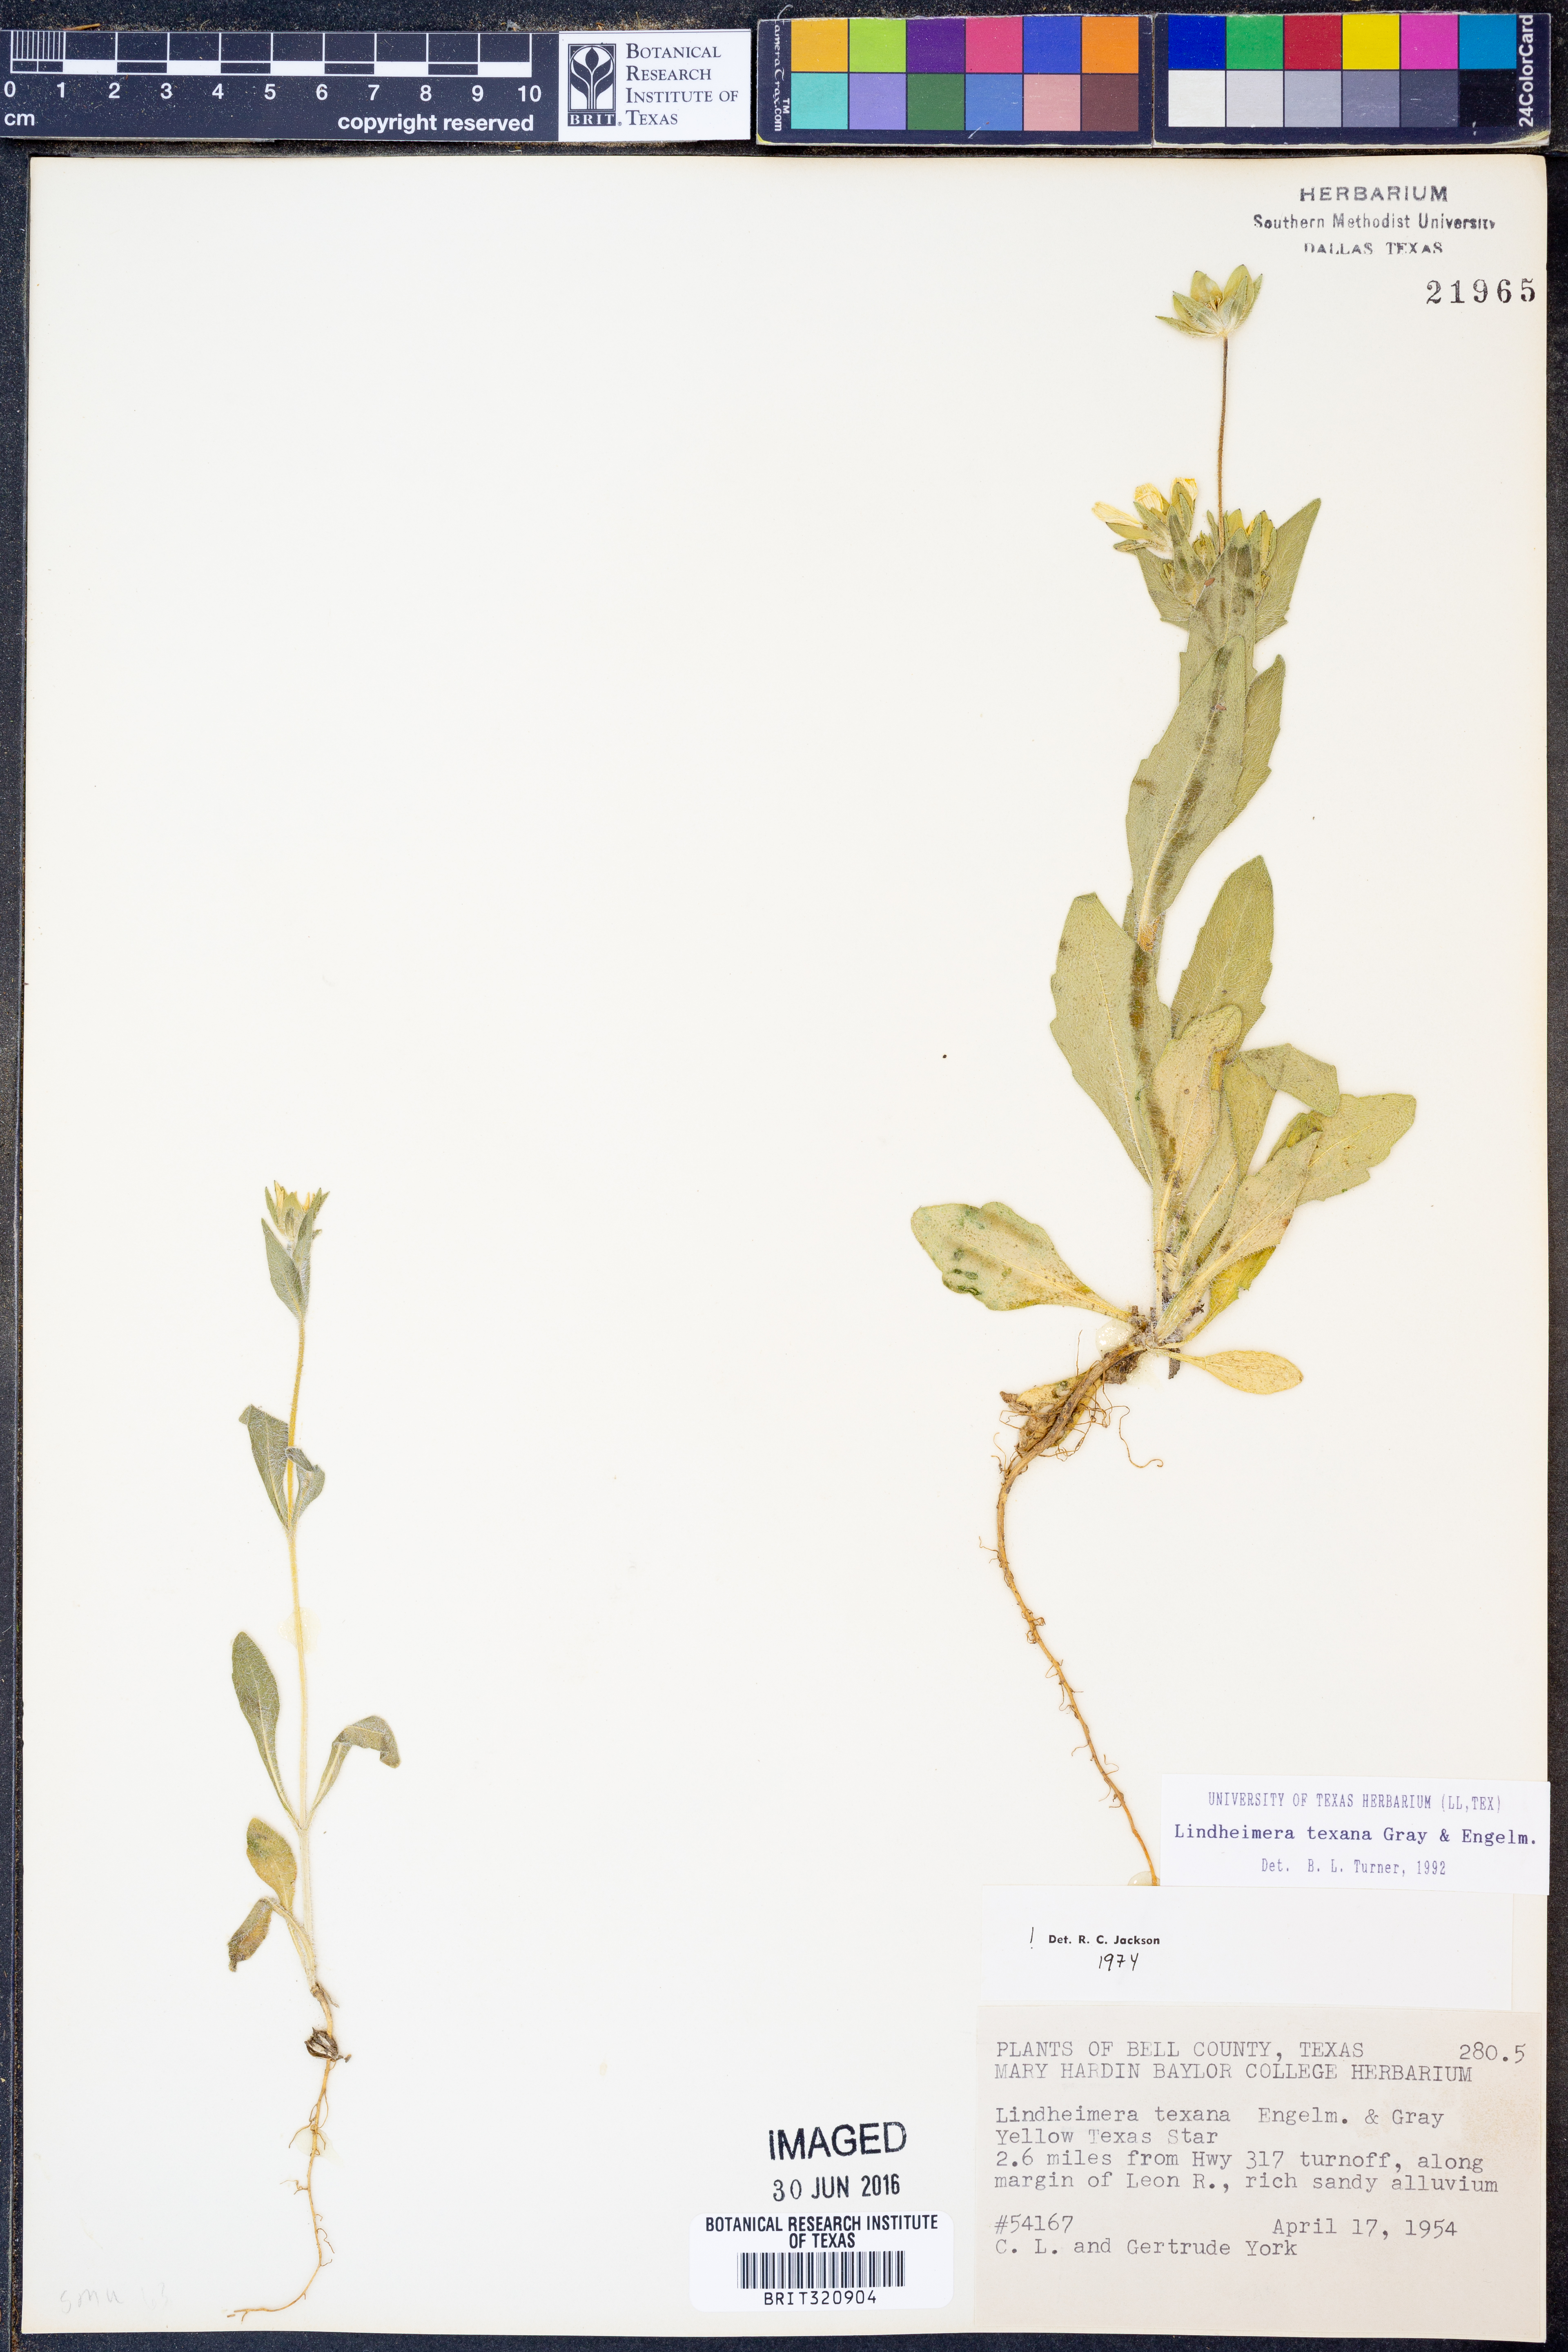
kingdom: Plantae
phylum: Tracheophyta
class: Magnoliopsida
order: Asterales
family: Asteraceae
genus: Lindheimera
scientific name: Lindheimera texana
